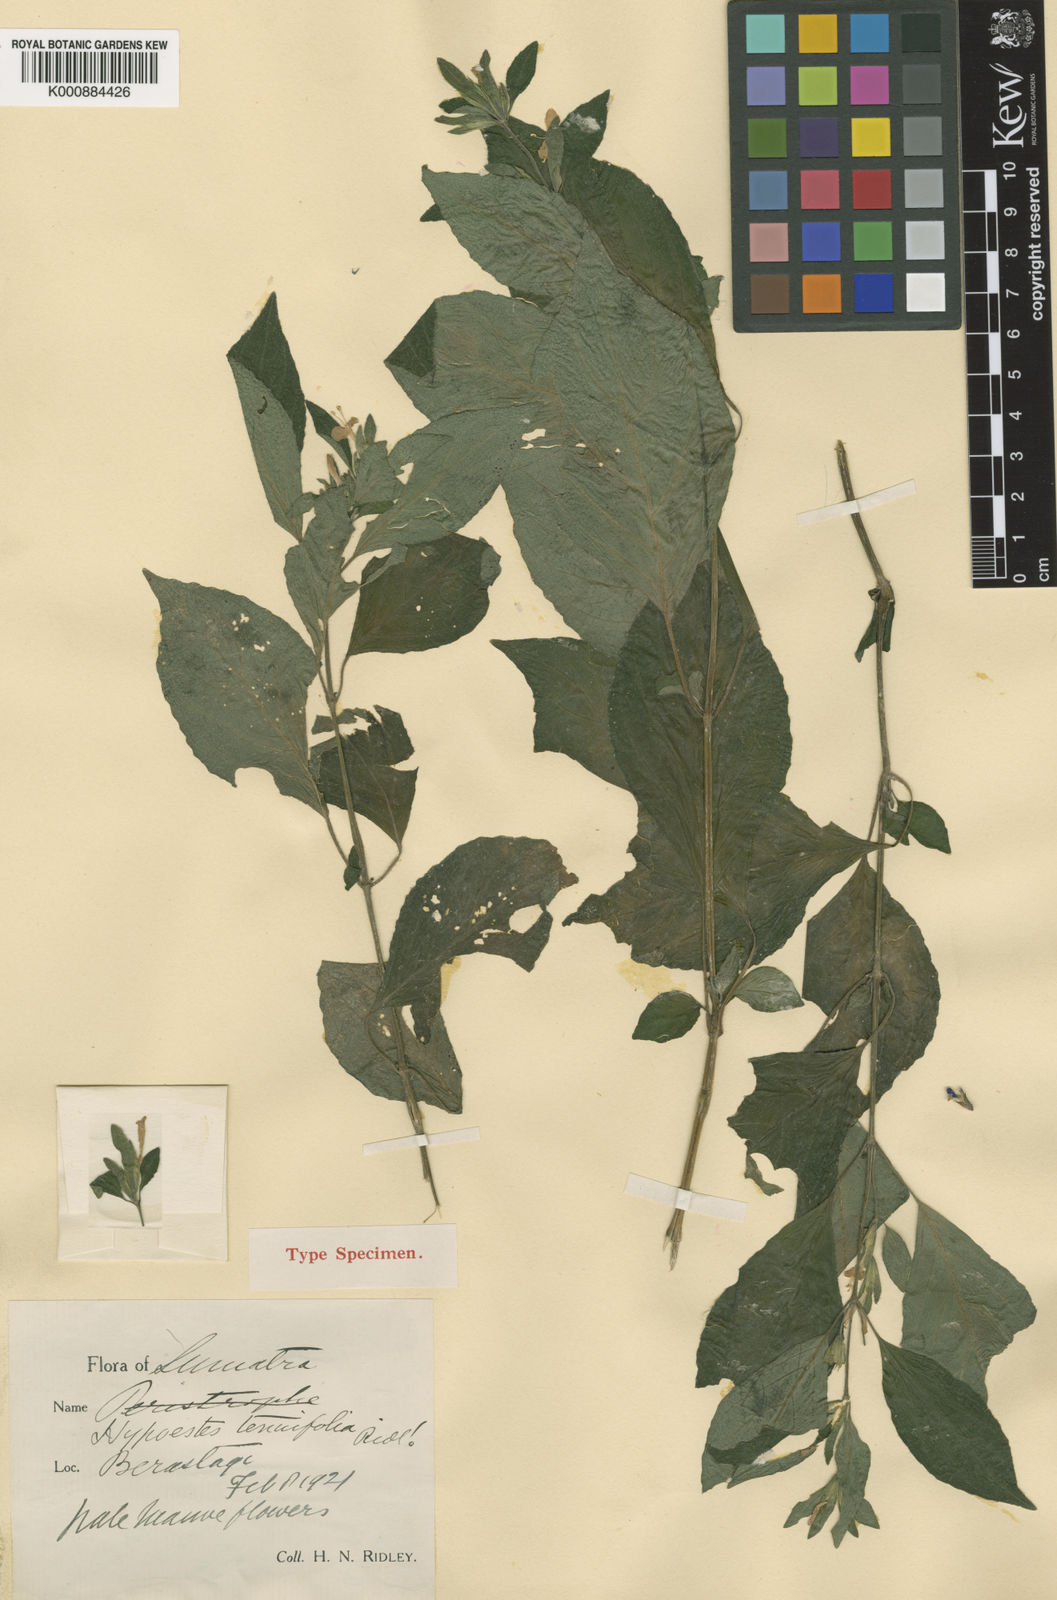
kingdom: Plantae
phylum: Tracheophyta
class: Magnoliopsida
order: Lamiales
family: Acanthaceae
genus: Hypoestes
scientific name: Hypoestes tenuifolia
